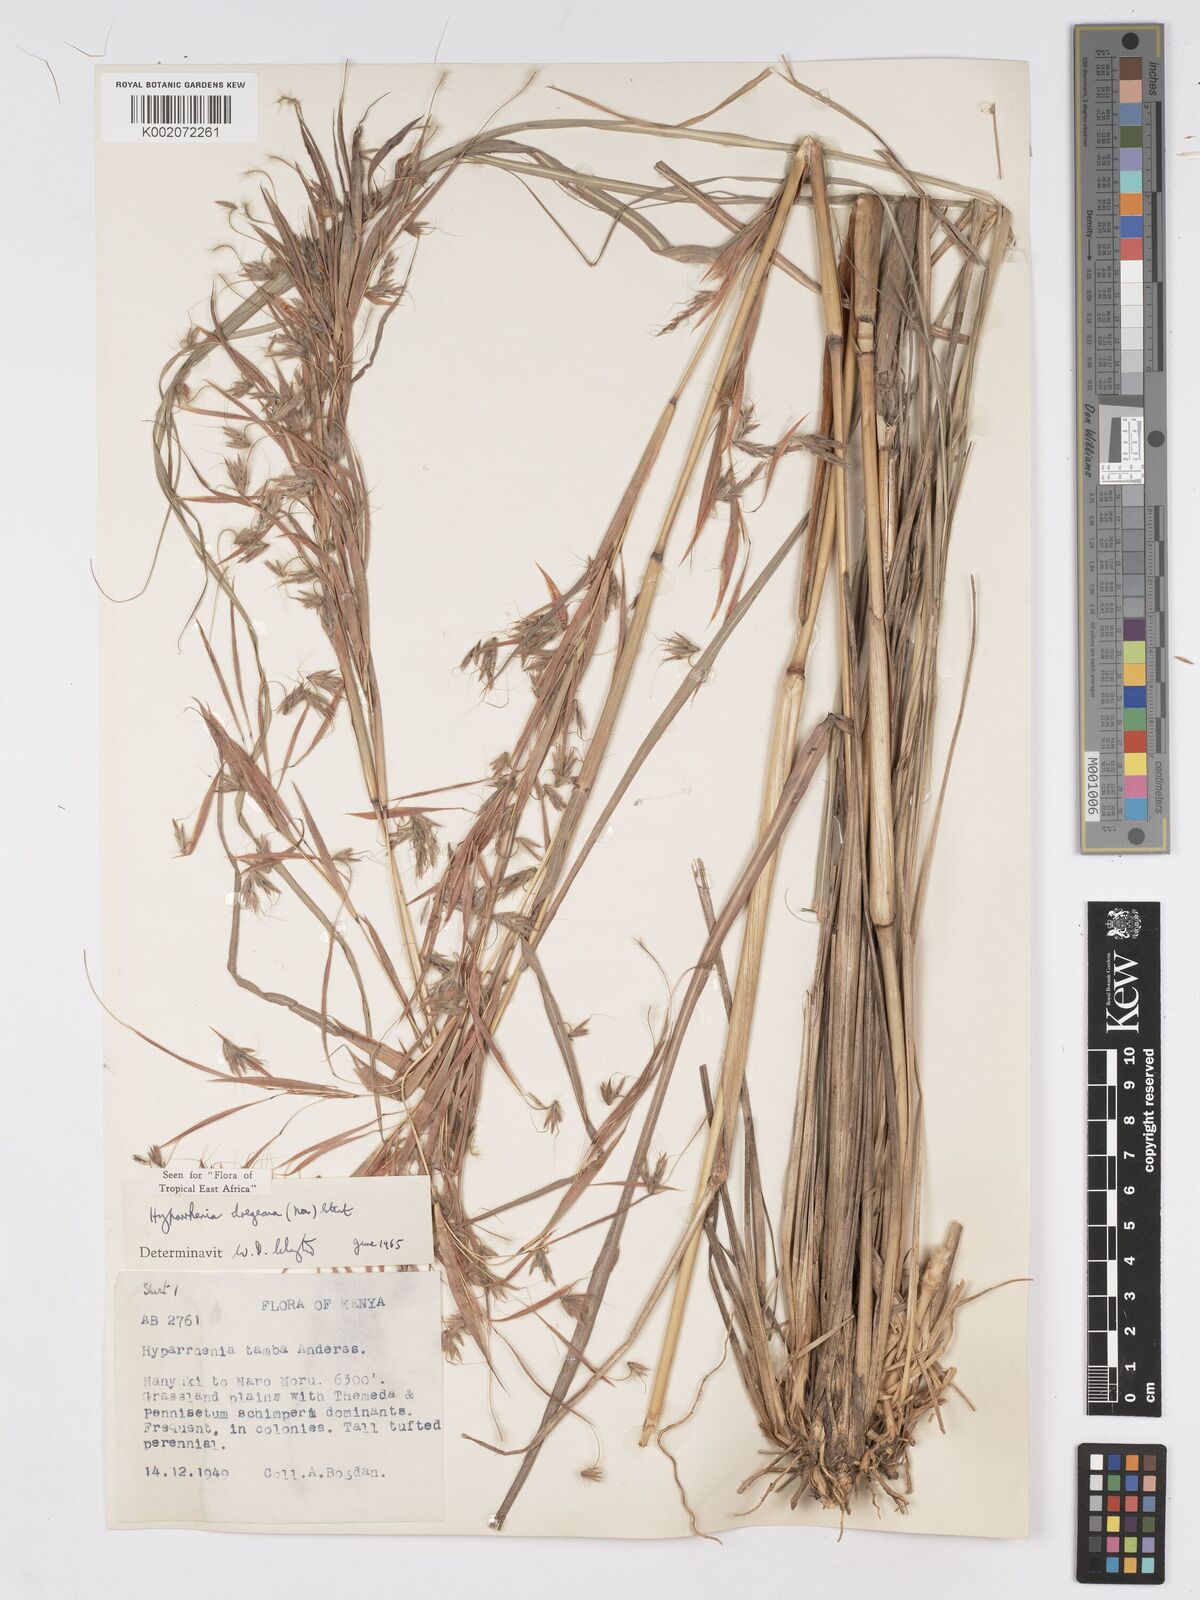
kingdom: Plantae
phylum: Tracheophyta
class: Liliopsida
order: Poales
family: Poaceae
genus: Hyparrhenia
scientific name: Hyparrhenia dregeana
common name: Silky thatching grass
